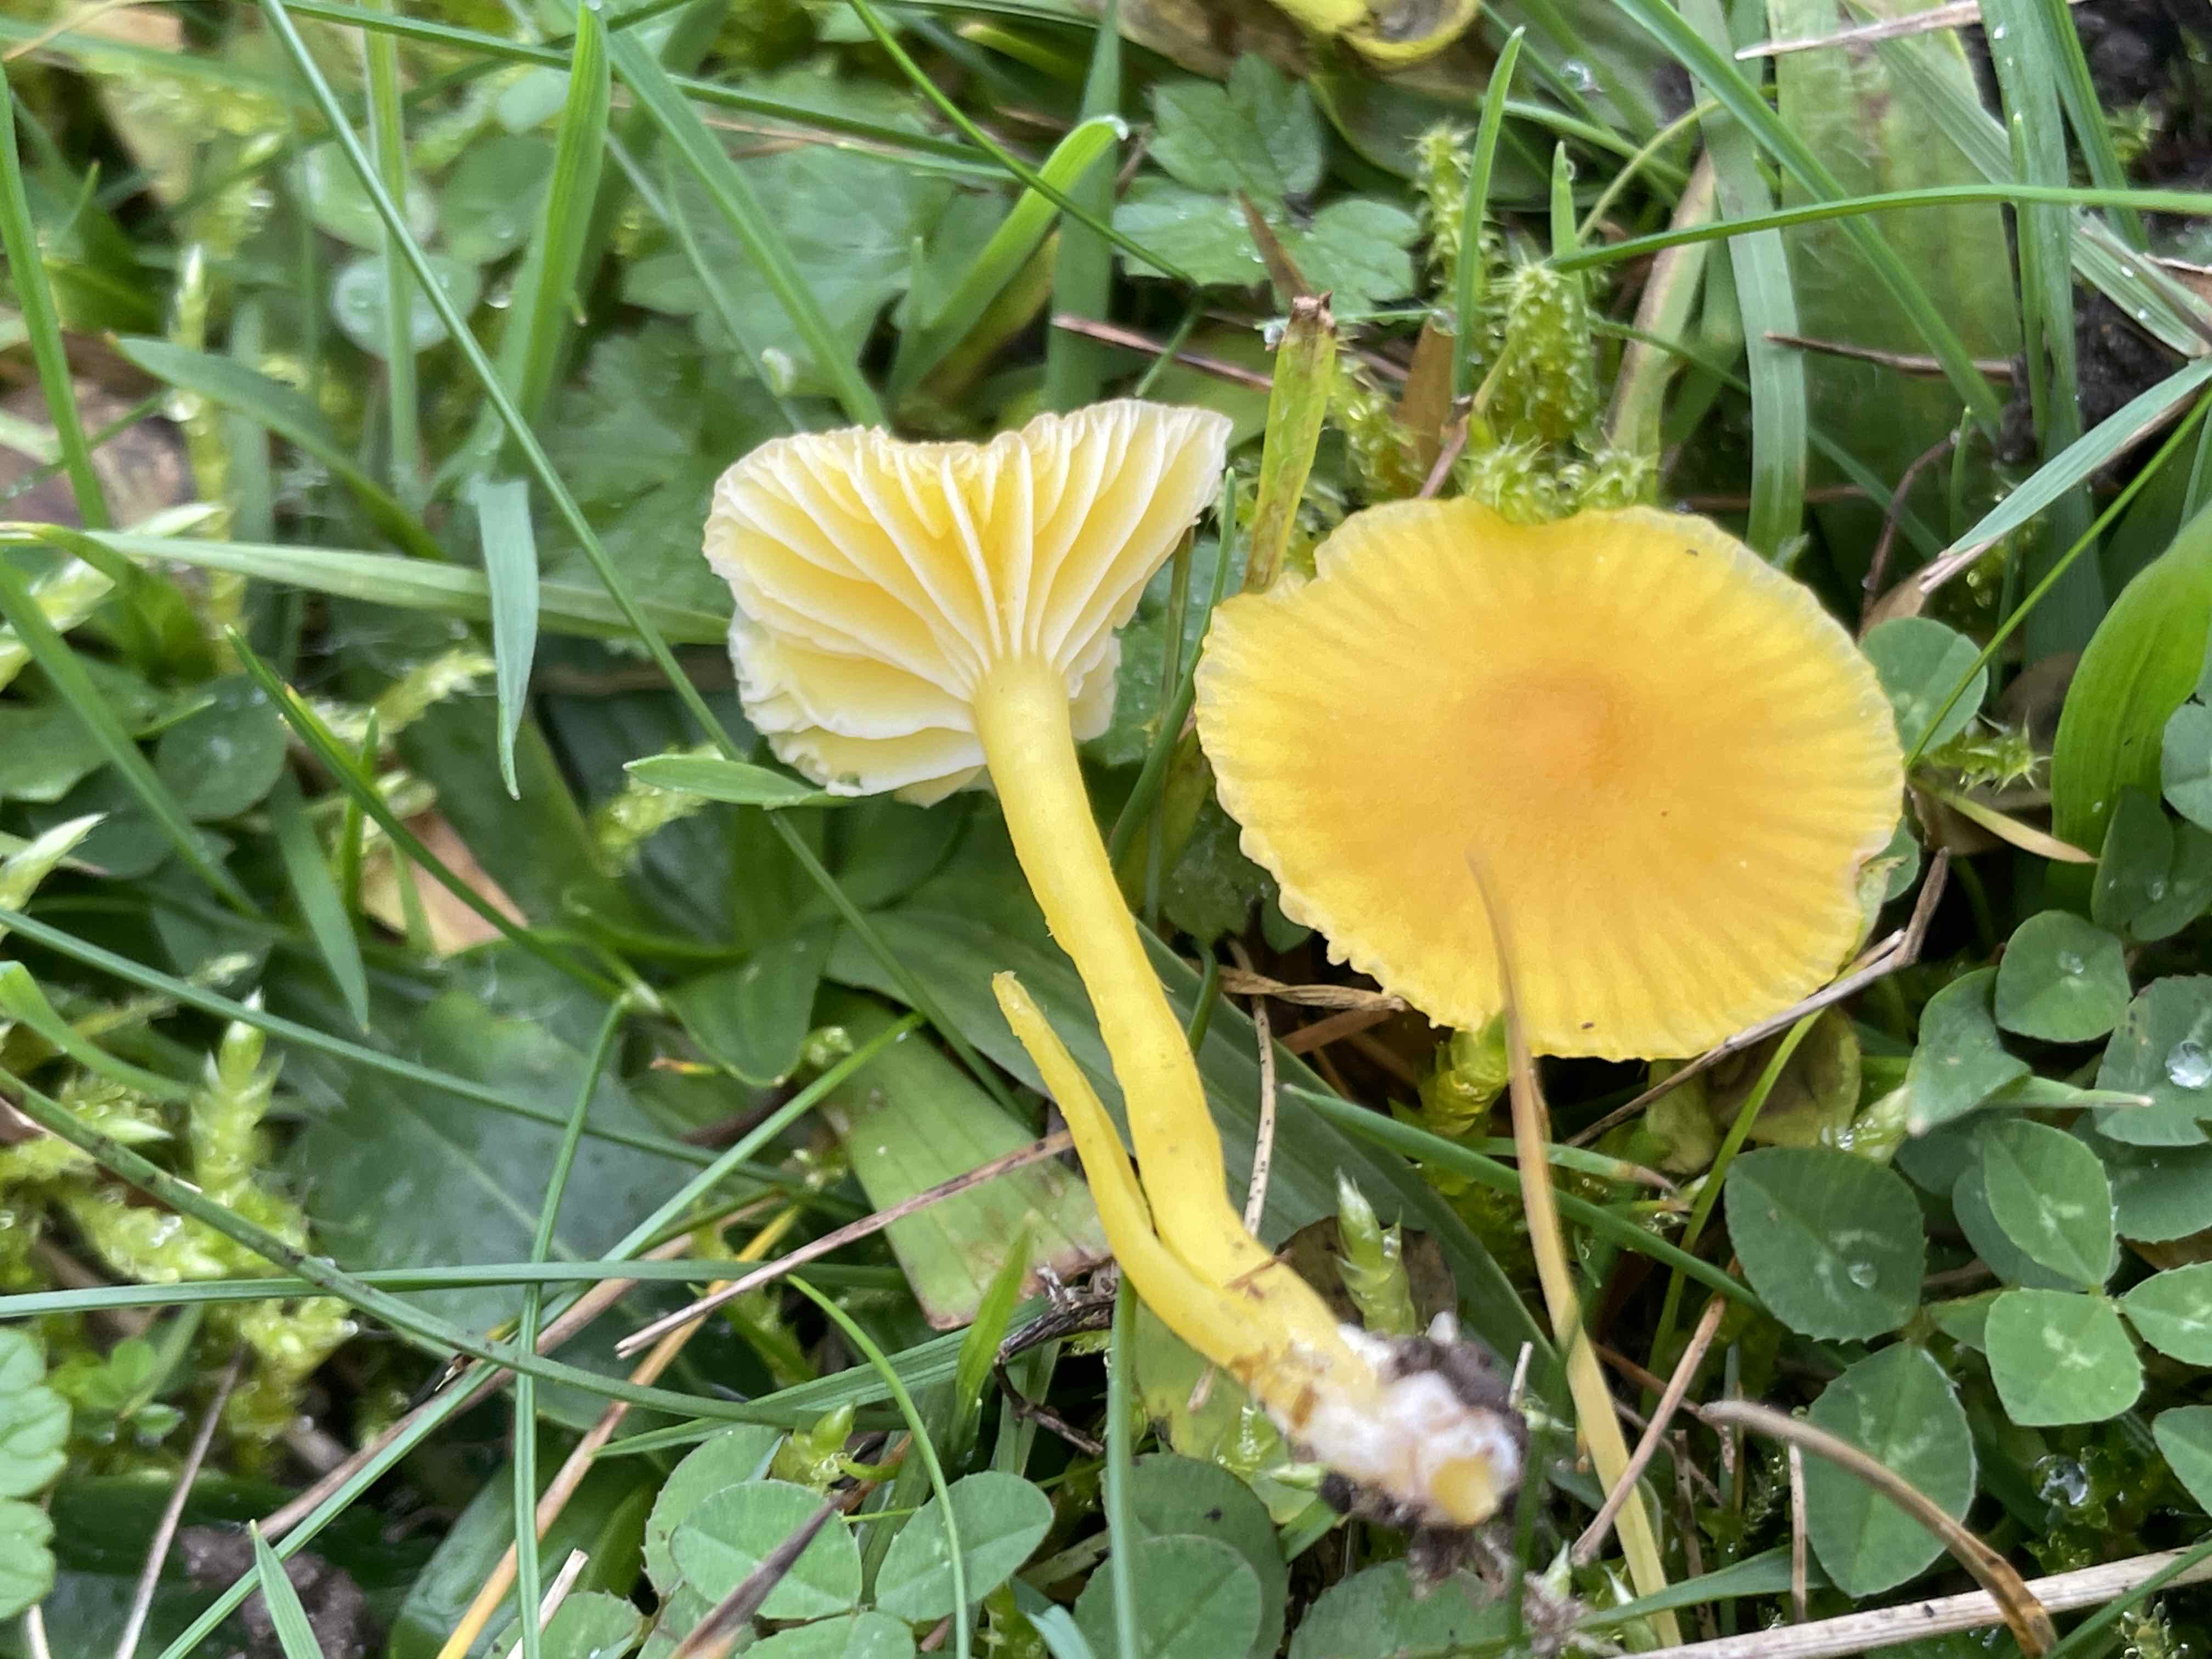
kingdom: Fungi
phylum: Basidiomycota
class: Agaricomycetes
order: Agaricales
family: Hygrophoraceae
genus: Hygrocybe
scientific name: Hygrocybe ceracea
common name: voksgul vokshat
